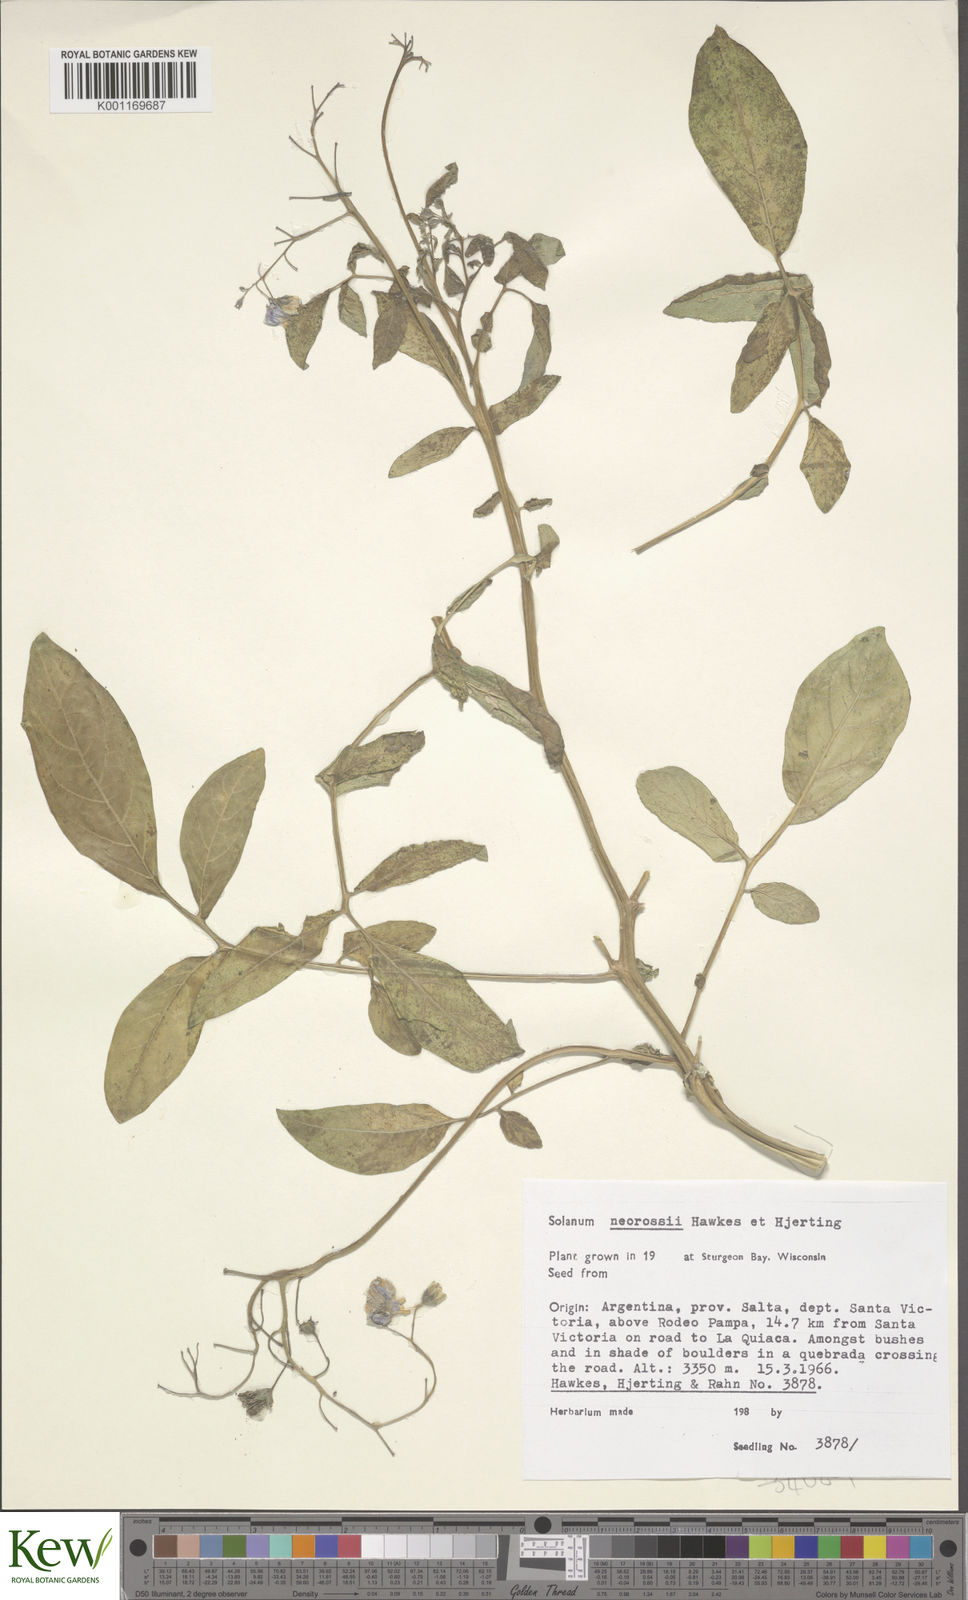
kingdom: Plantae
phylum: Tracheophyta
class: Magnoliopsida
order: Solanales
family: Solanaceae
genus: Solanum
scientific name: Solanum neorossii
